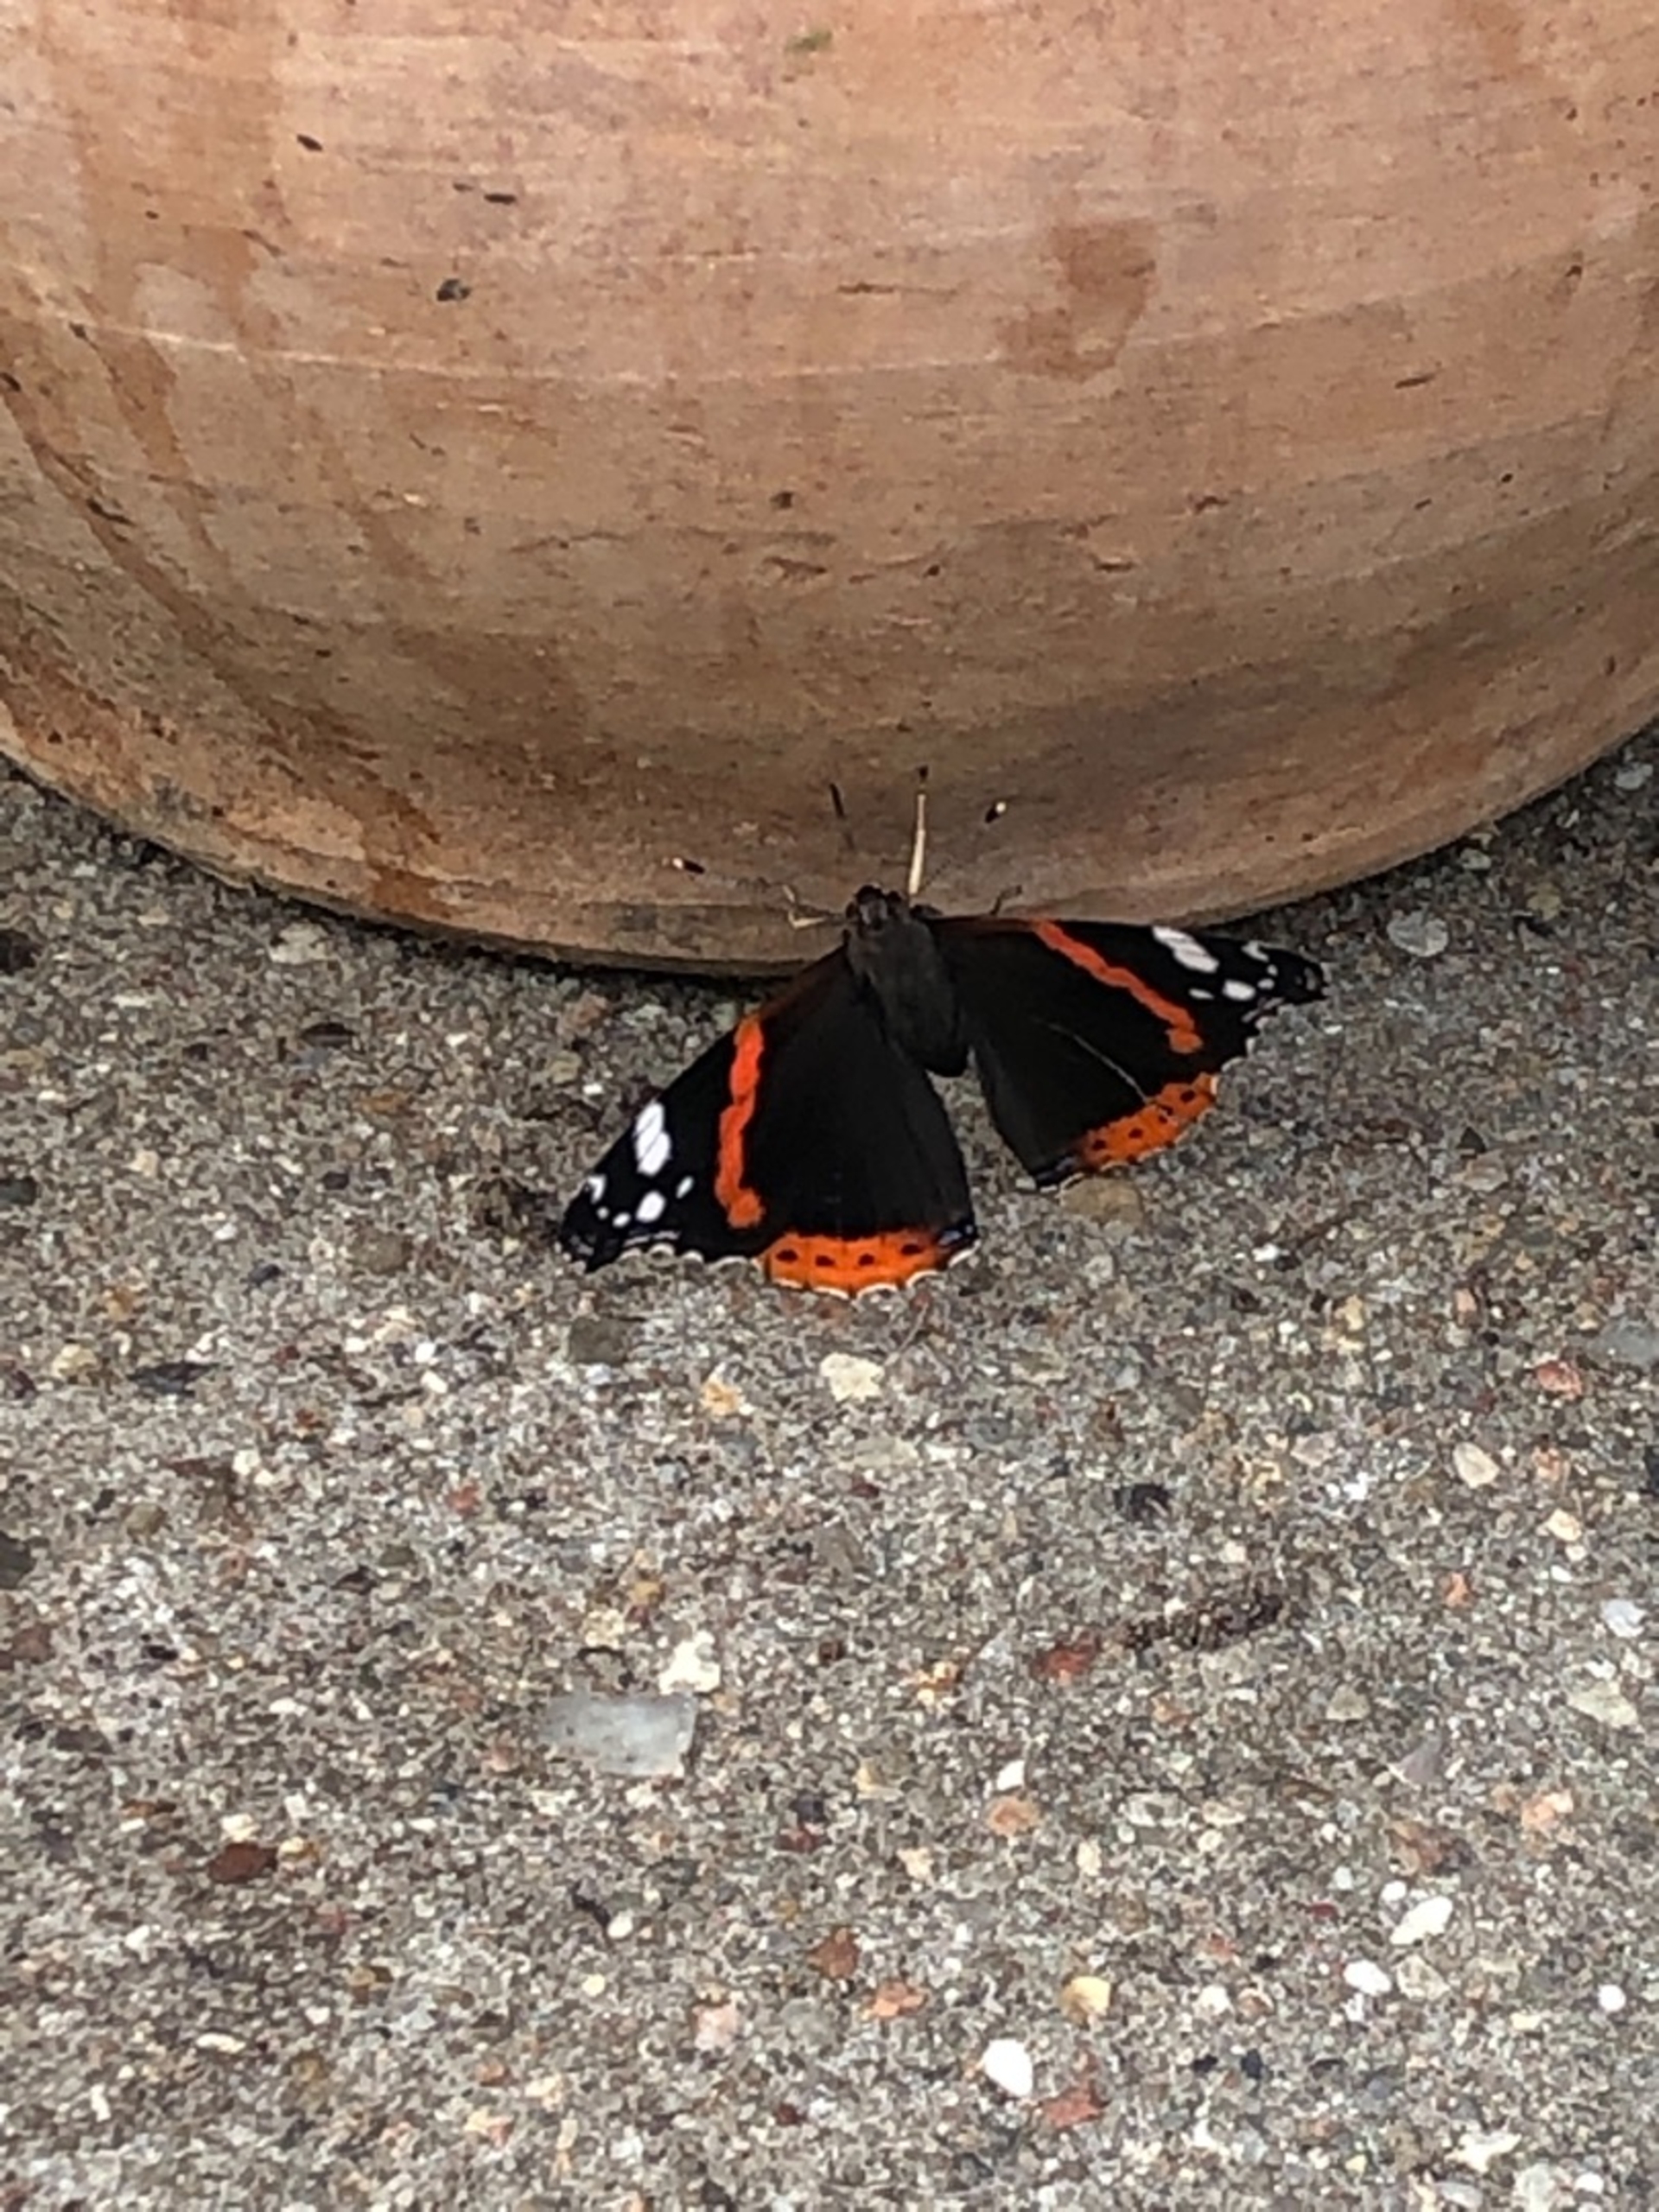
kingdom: Animalia
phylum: Arthropoda
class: Insecta
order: Lepidoptera
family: Nymphalidae
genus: Vanessa
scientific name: Vanessa atalanta
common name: Admiral
